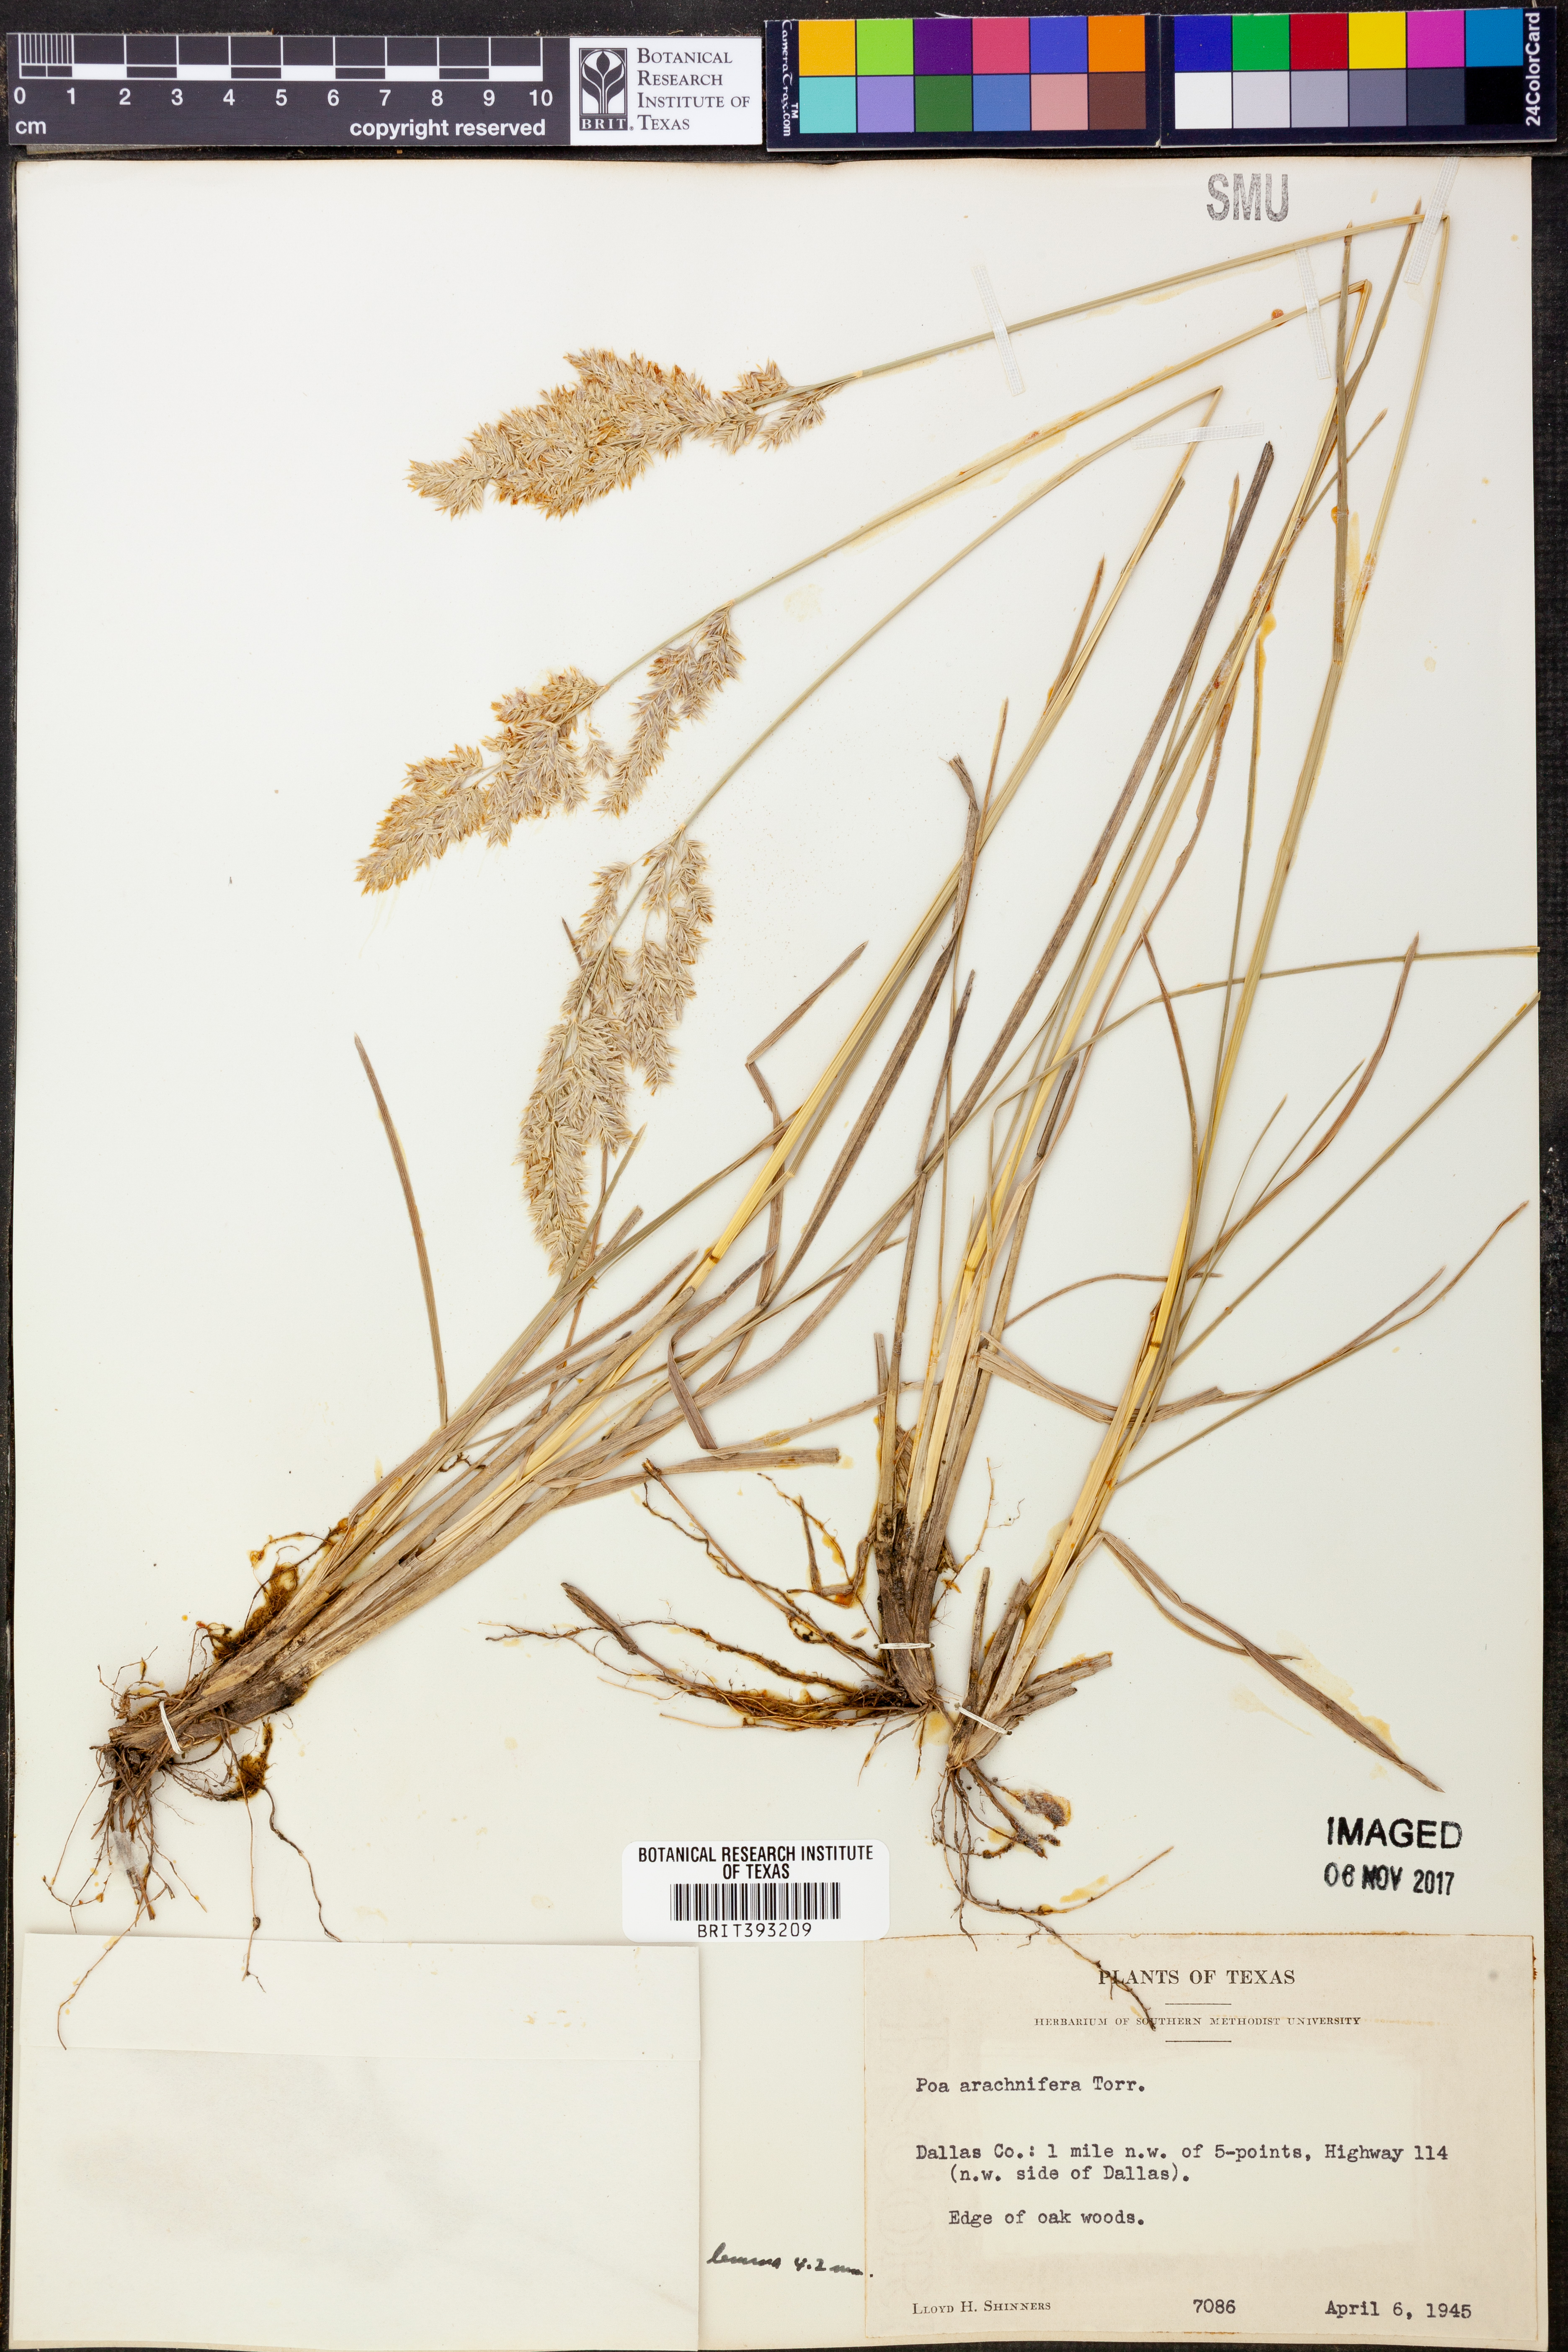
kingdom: Plantae
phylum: Tracheophyta
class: Liliopsida
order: Poales
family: Poaceae
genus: Poa
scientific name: Poa arachnifera
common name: Texas bluegrass
